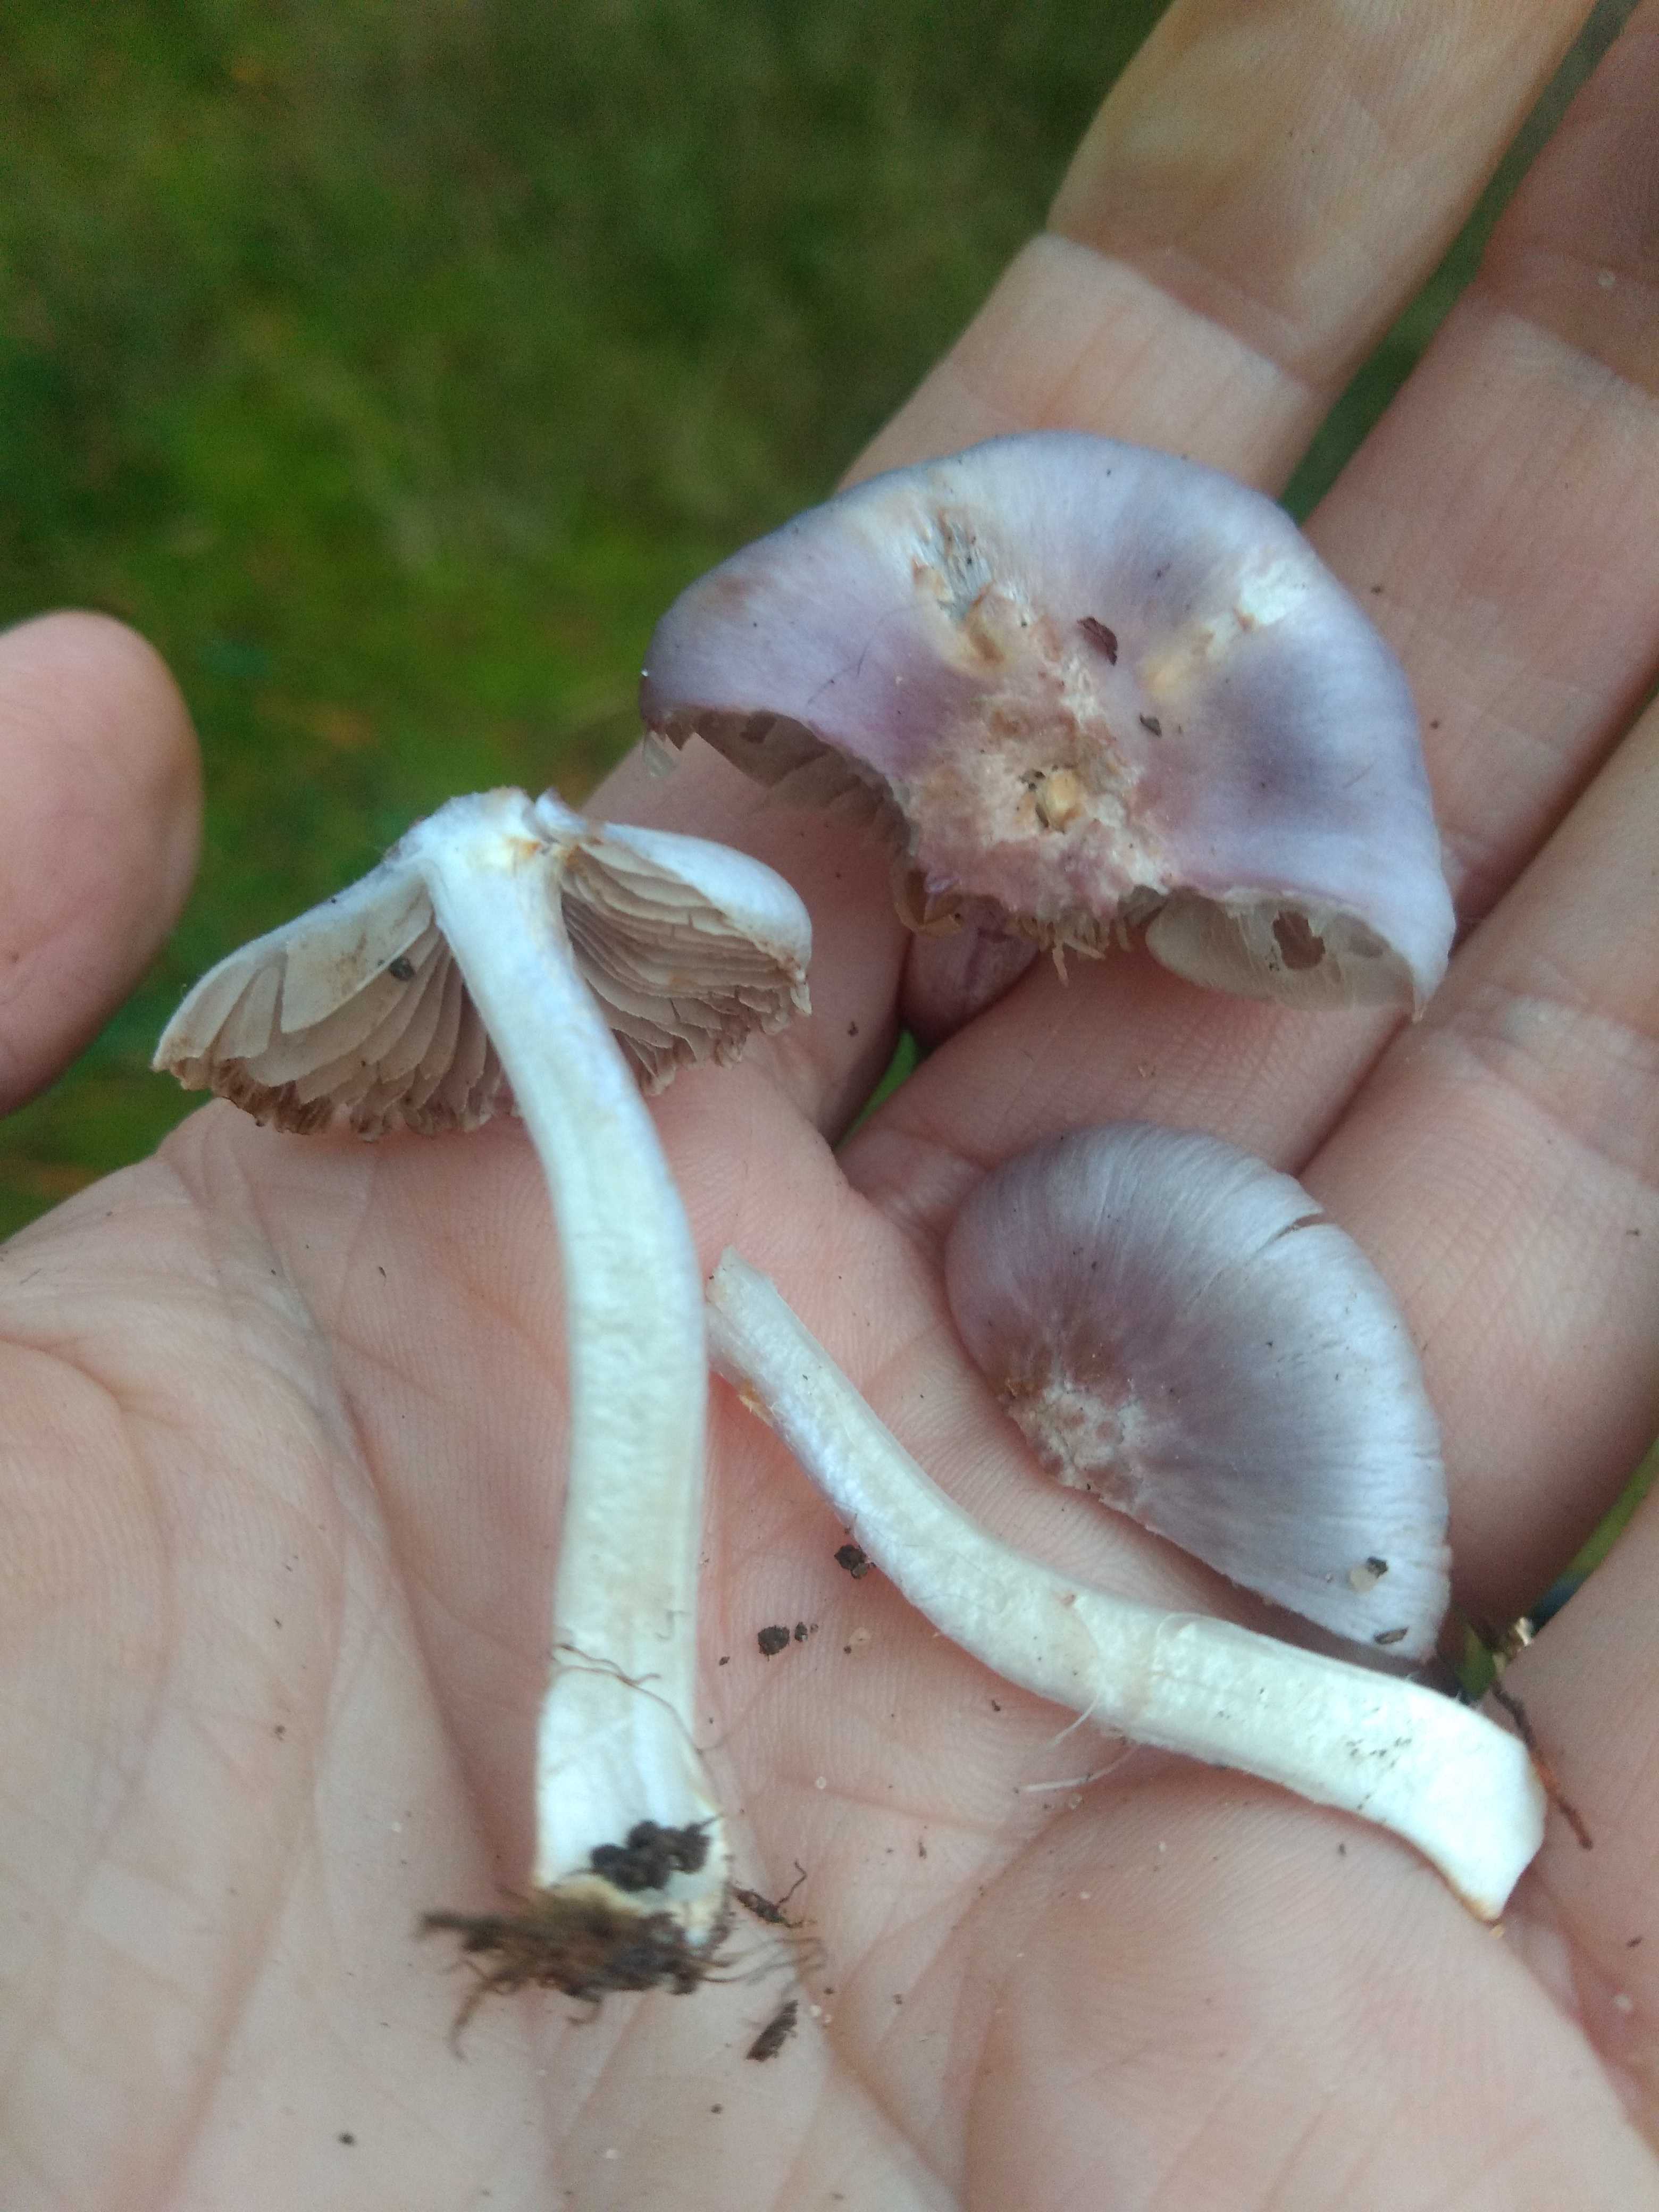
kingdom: Fungi
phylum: Basidiomycota
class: Agaricomycetes
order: Agaricales
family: Inocybaceae
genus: Inocybe
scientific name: Inocybe geophylla
